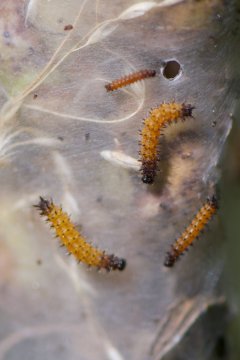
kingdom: Animalia
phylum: Arthropoda
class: Insecta
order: Lepidoptera
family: Nymphalidae
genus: Euphydryas
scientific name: Euphydryas phaeton
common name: Baltimore Checkerspot
